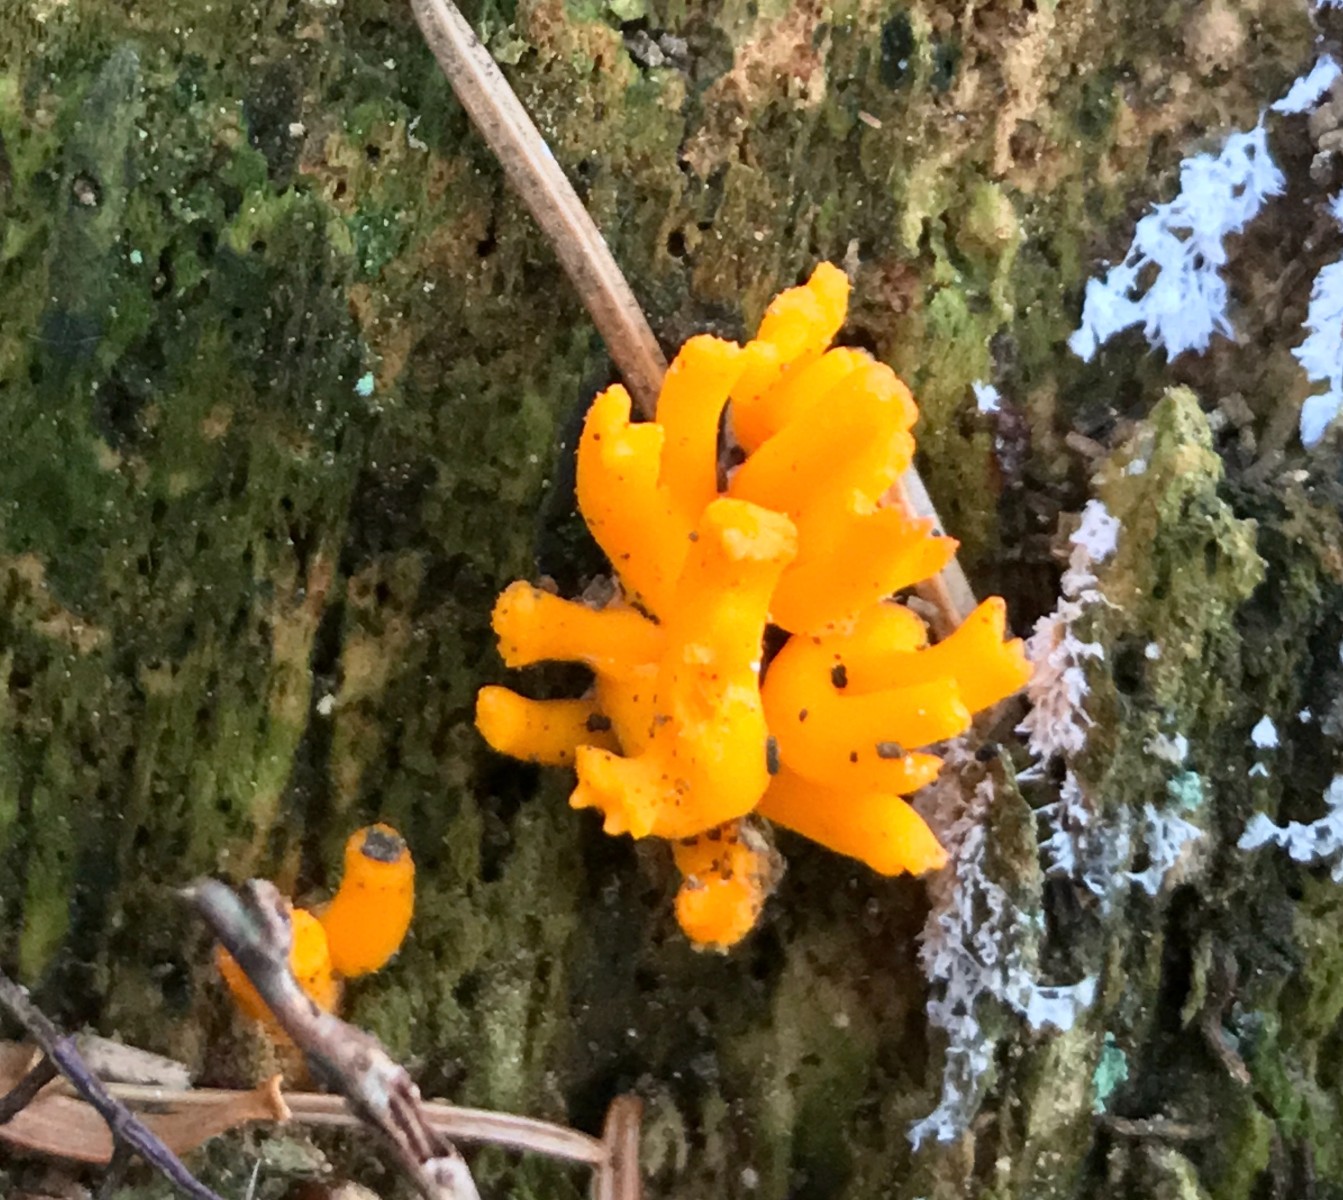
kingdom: Fungi
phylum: Basidiomycota
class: Dacrymycetes
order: Dacrymycetales
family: Dacrymycetaceae
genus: Calocera
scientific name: Calocera viscosa
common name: almindelig guldgaffel
